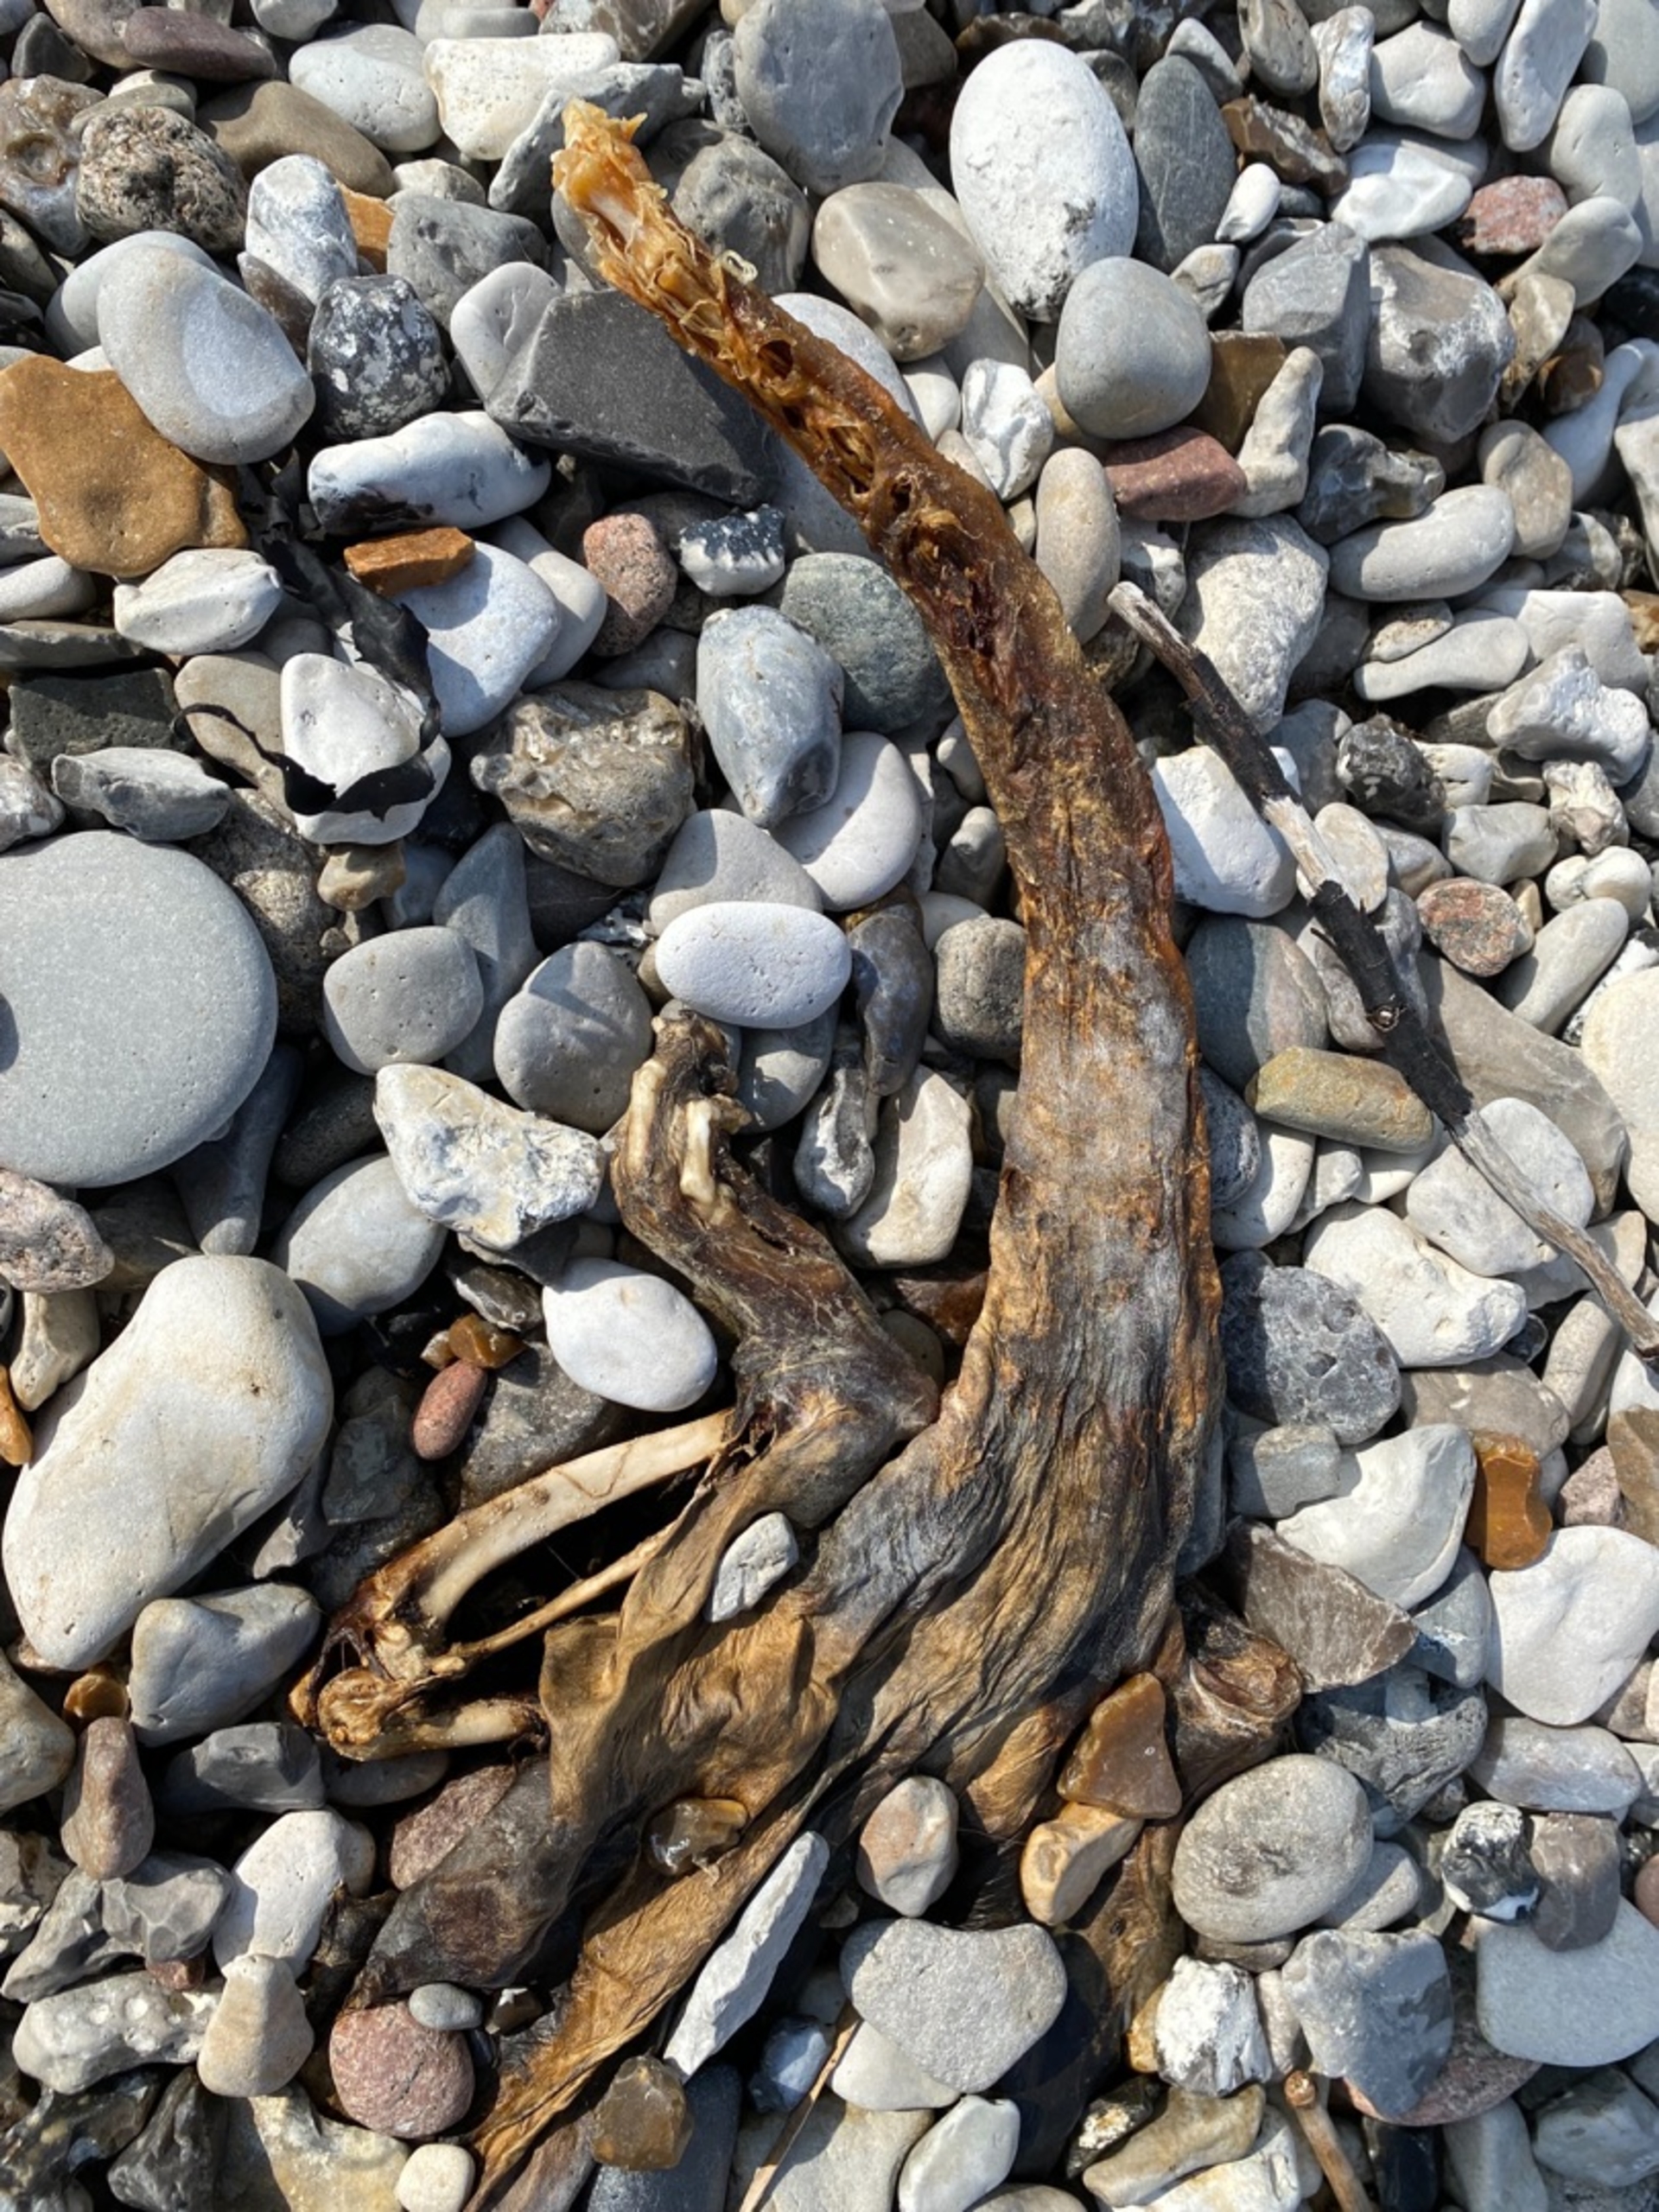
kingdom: Animalia
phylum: Chordata
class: Mammalia
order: Carnivora
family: Mustelidae
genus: Lutra
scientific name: Lutra lutra
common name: Odder
